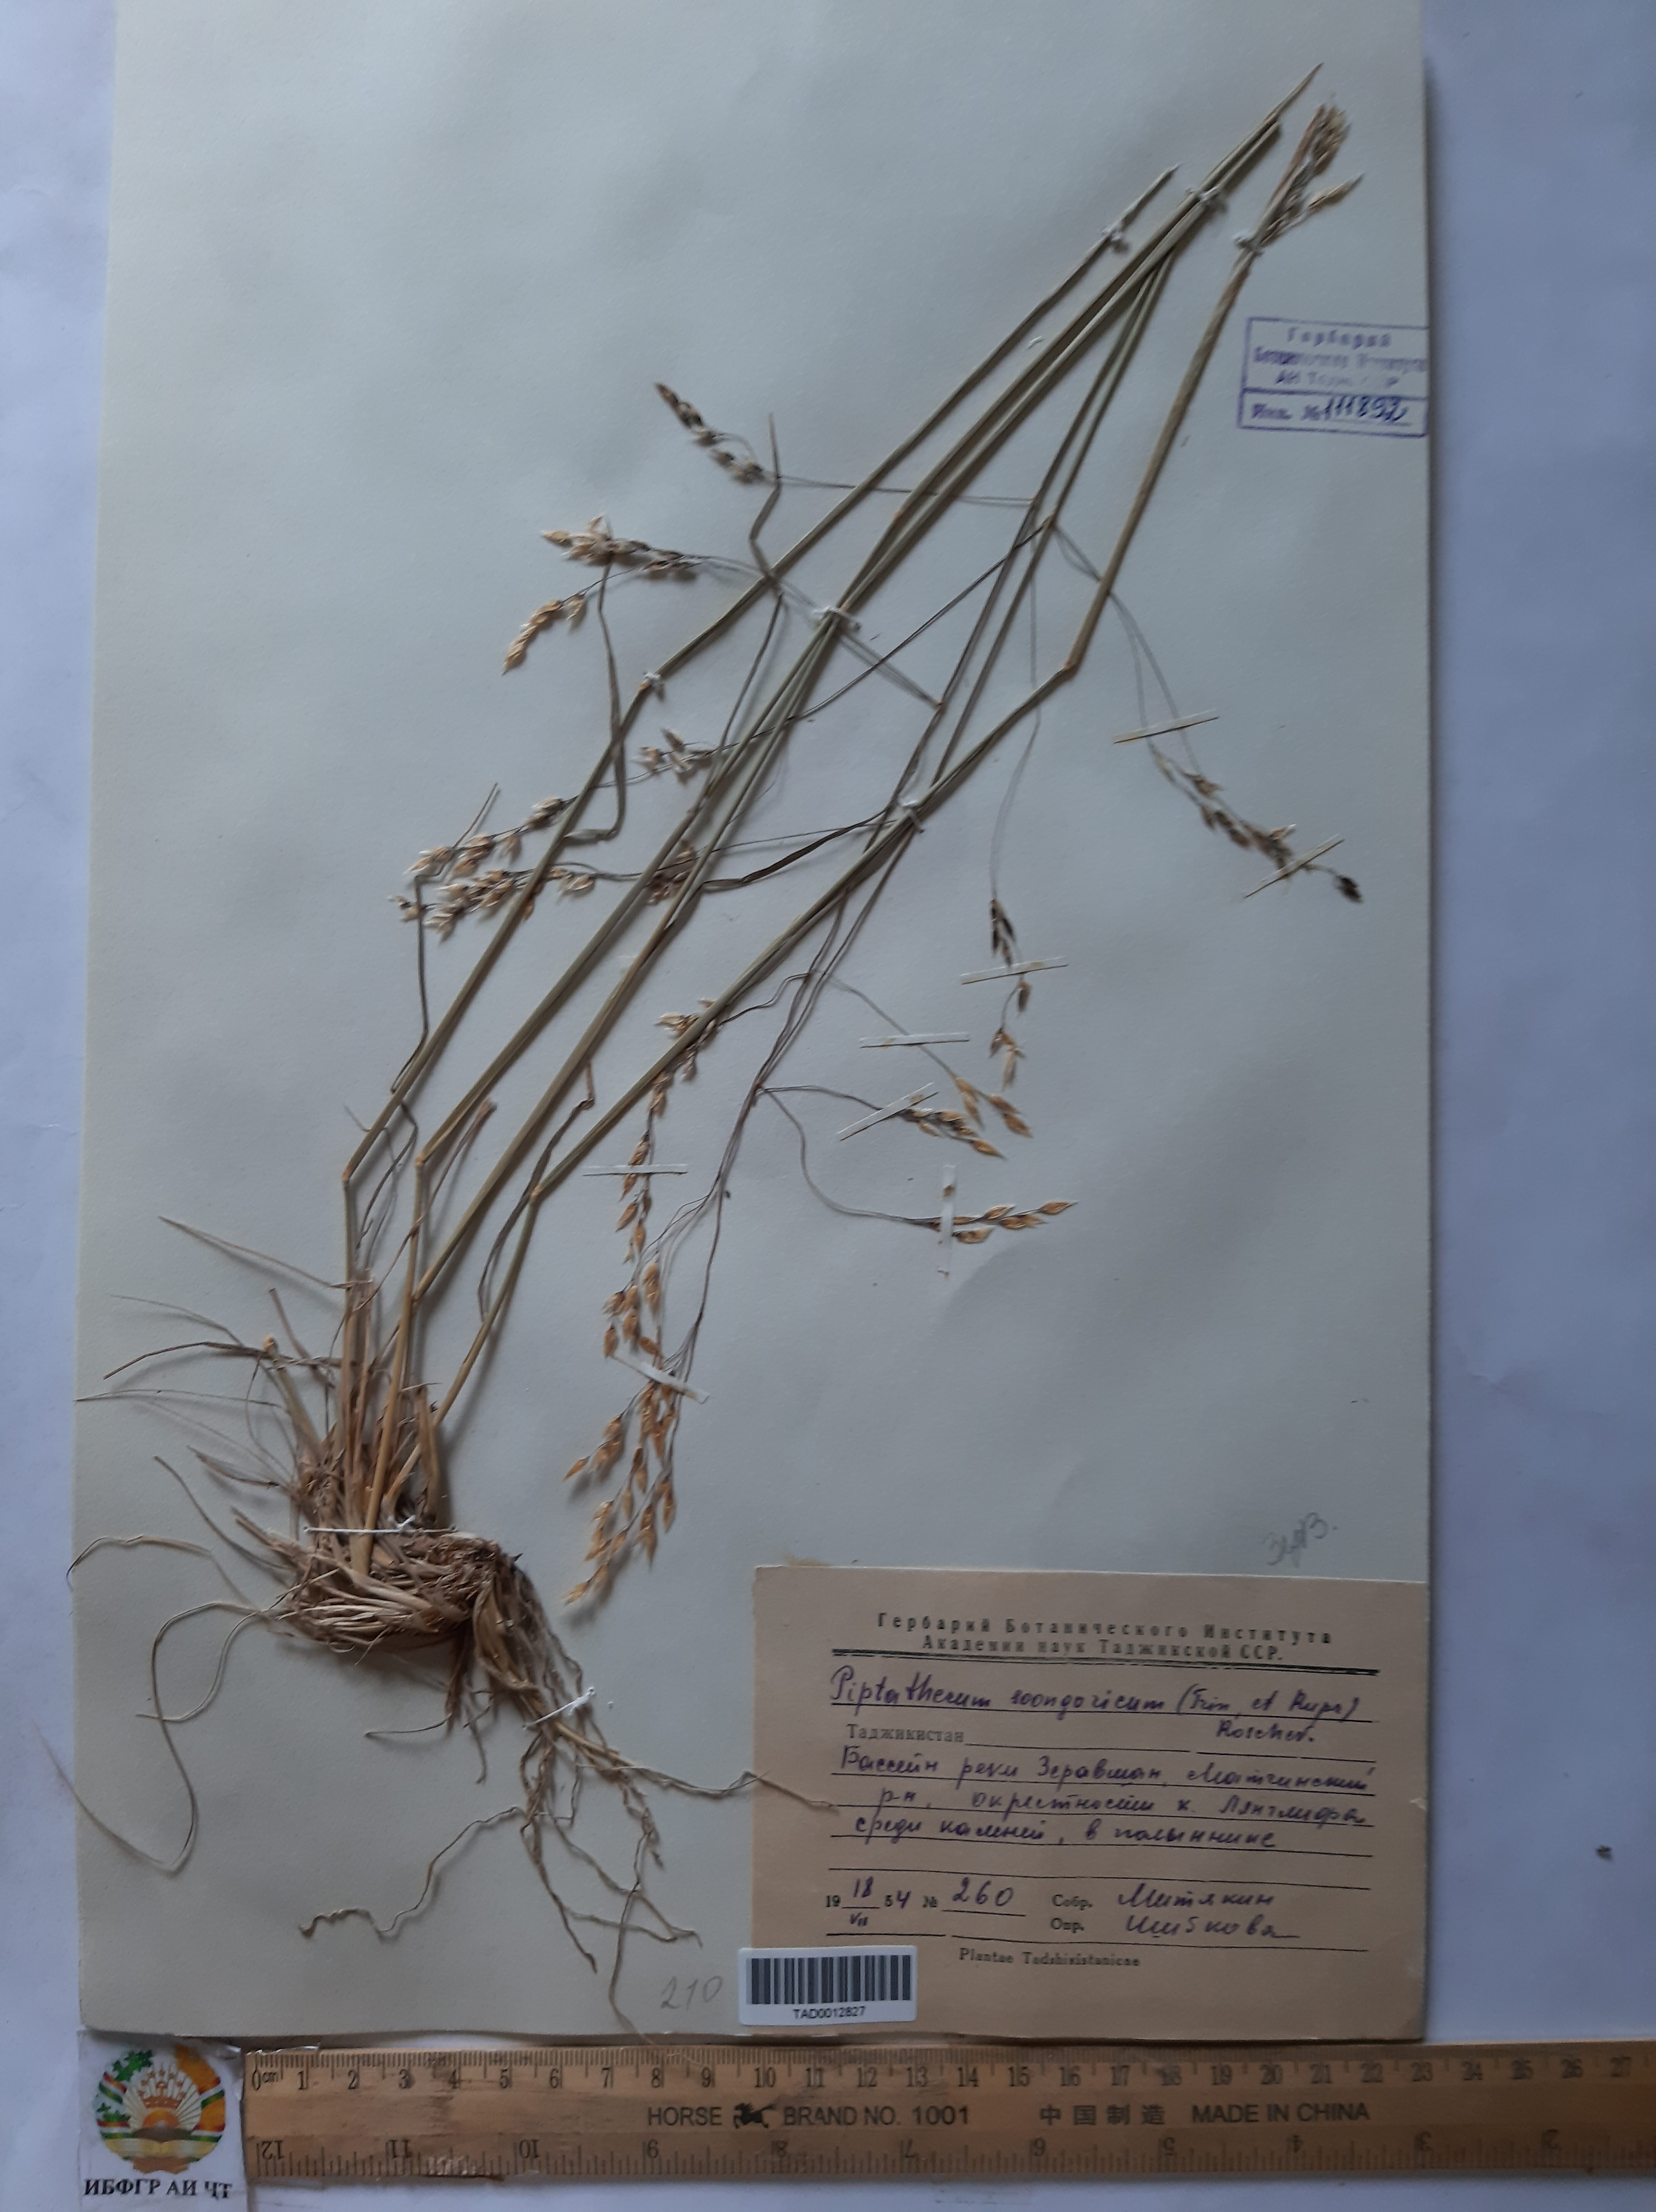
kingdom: Plantae
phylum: Tracheophyta
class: Liliopsida
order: Poales
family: Poaceae
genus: Piptatherum
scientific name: Piptatherum songaricum
